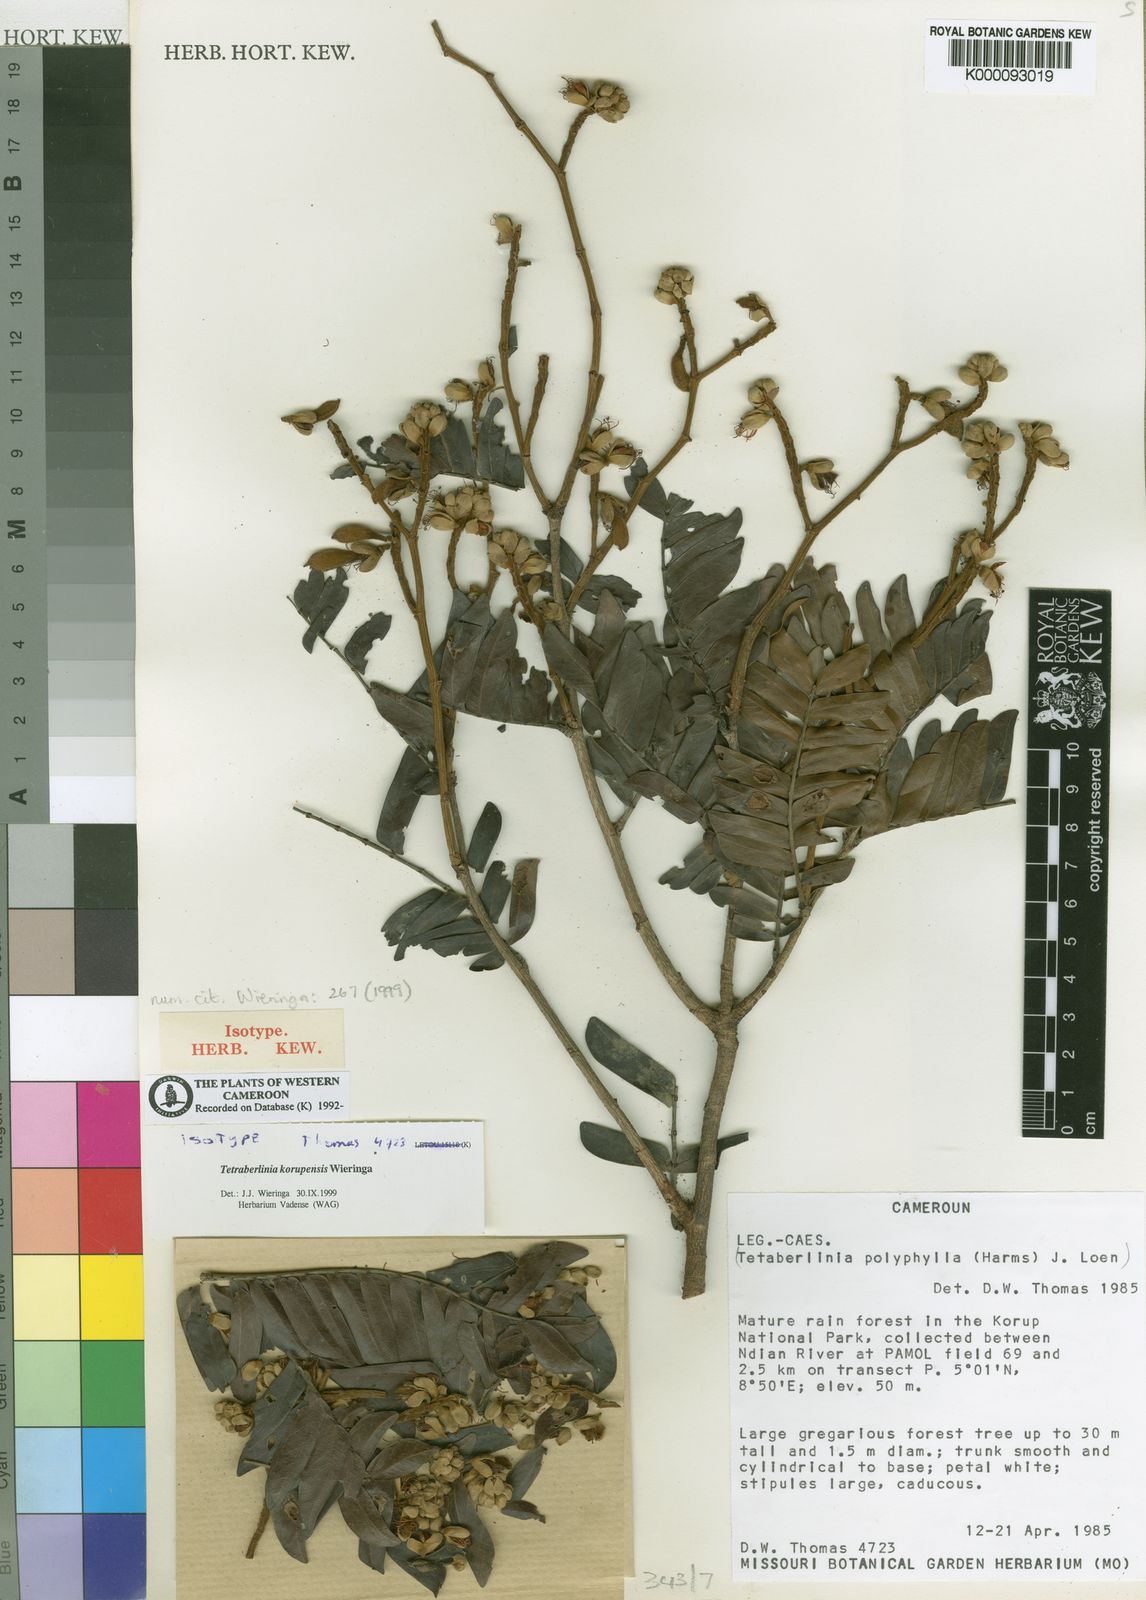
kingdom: Plantae
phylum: Tracheophyta
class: Magnoliopsida
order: Fabales
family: Fabaceae
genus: Tetraberlinia
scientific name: Tetraberlinia korupensis
